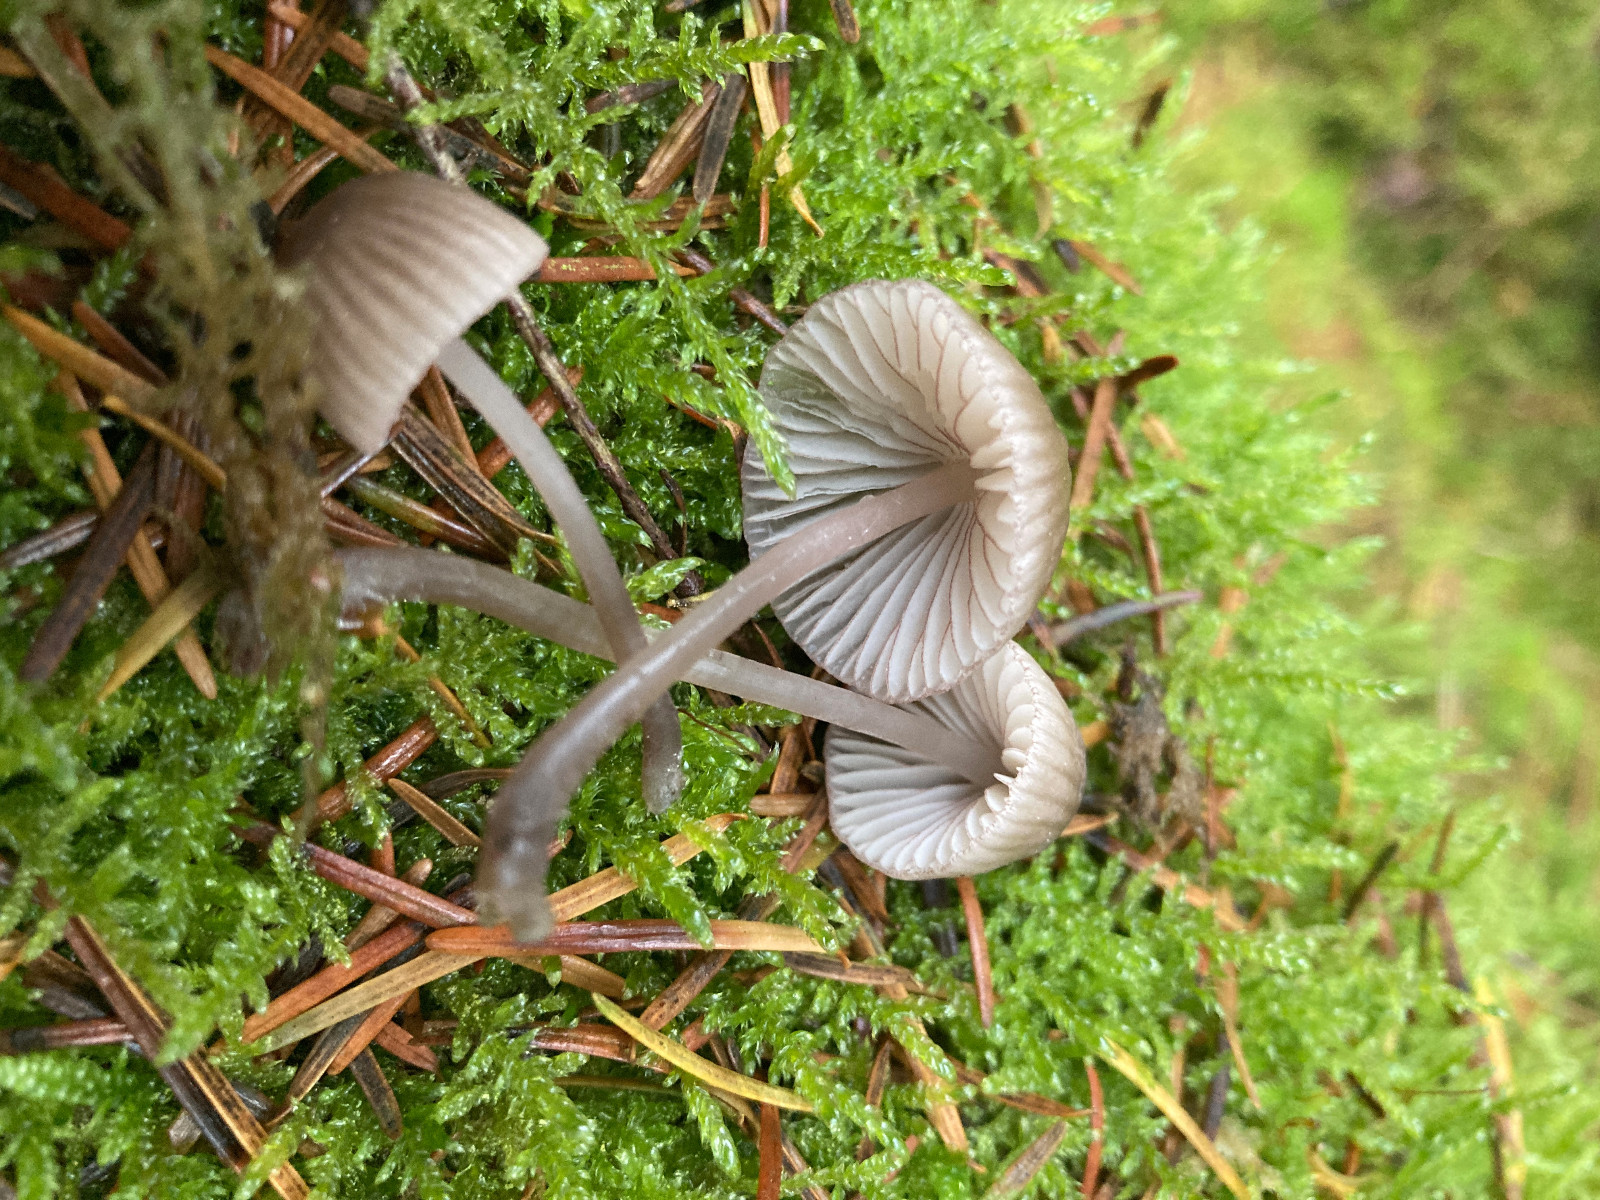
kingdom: Fungi
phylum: Basidiomycota
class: Agaricomycetes
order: Agaricales
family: Mycenaceae
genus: Mycena
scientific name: Mycena rubromarginata
